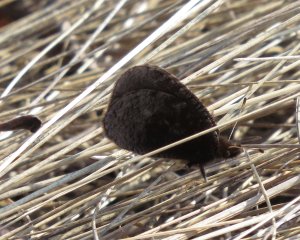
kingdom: Animalia
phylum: Arthropoda
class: Insecta
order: Lepidoptera
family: Nymphalidae
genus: Erebia
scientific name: Erebia discoidalis
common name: Red-disked Alpine
